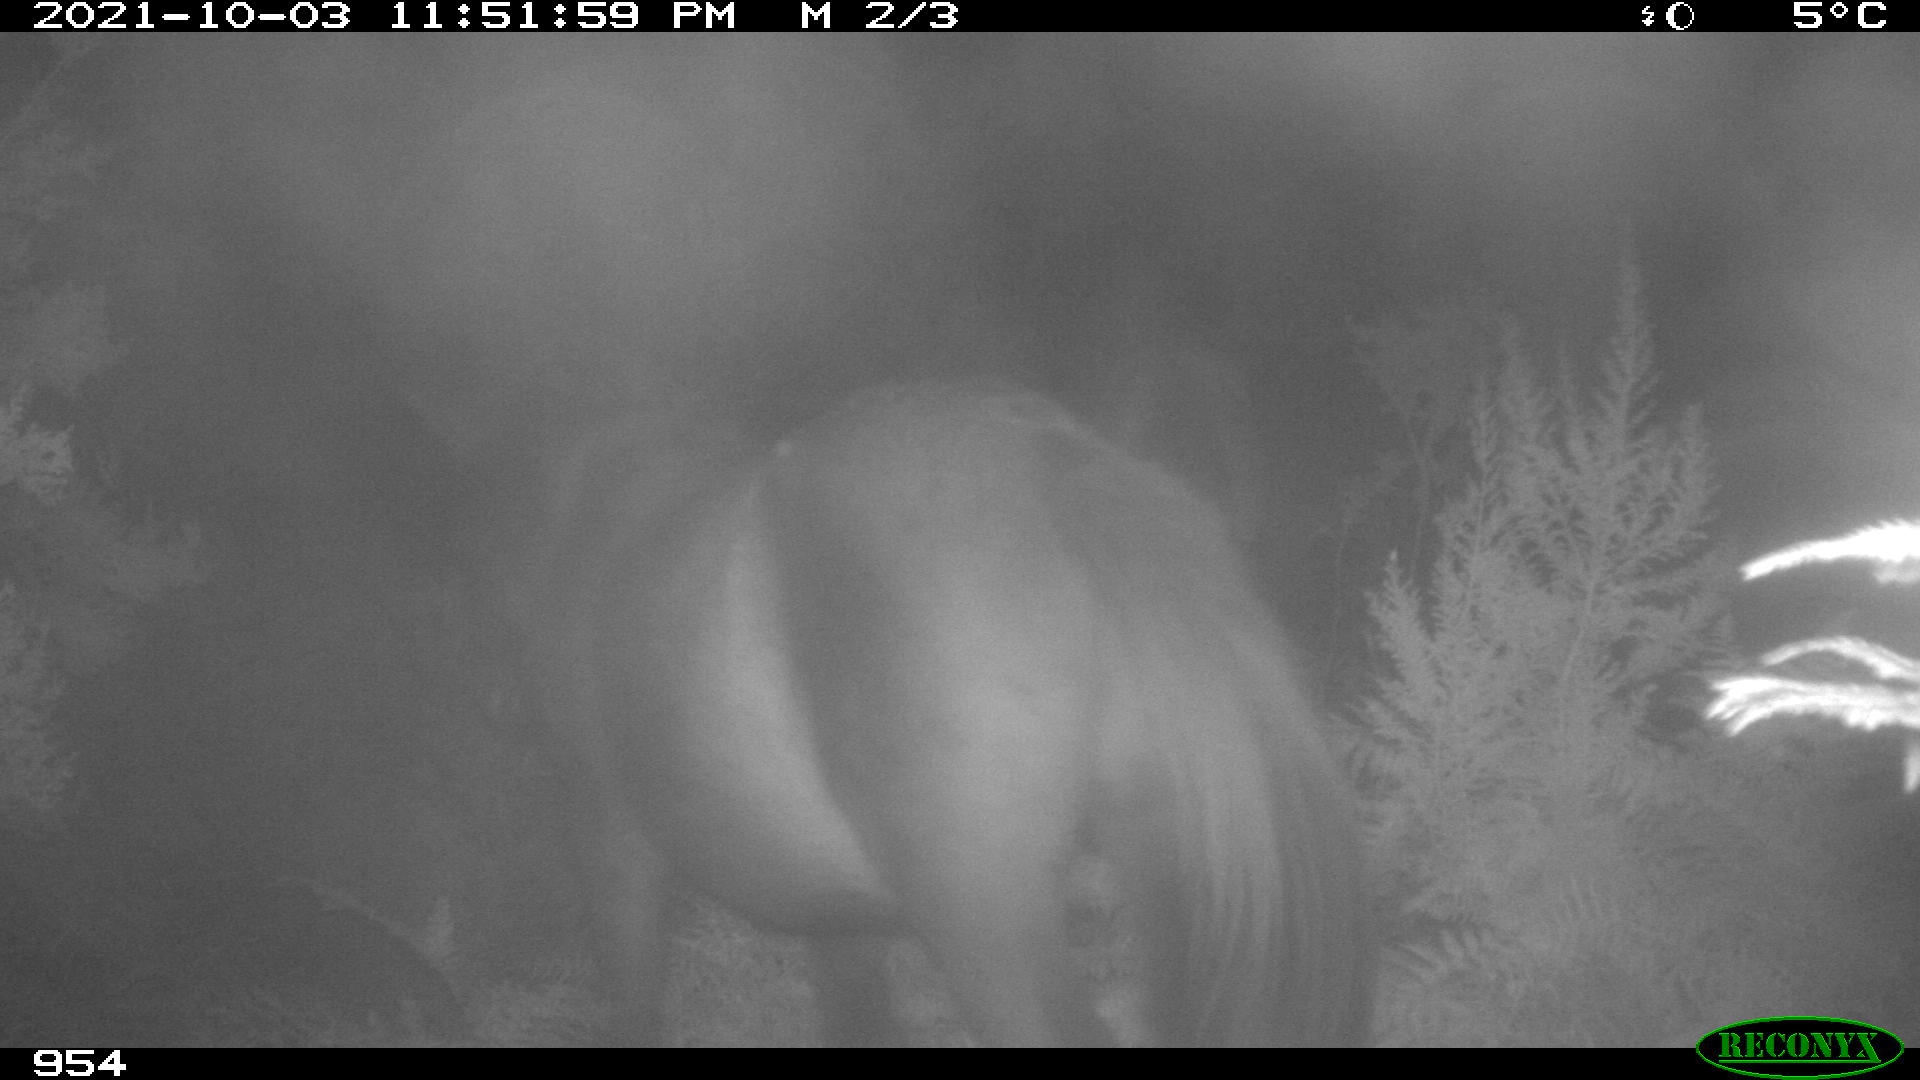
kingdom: Animalia
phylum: Chordata
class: Mammalia
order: Perissodactyla
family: Equidae
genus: Equus
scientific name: Equus caballus
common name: Horse
